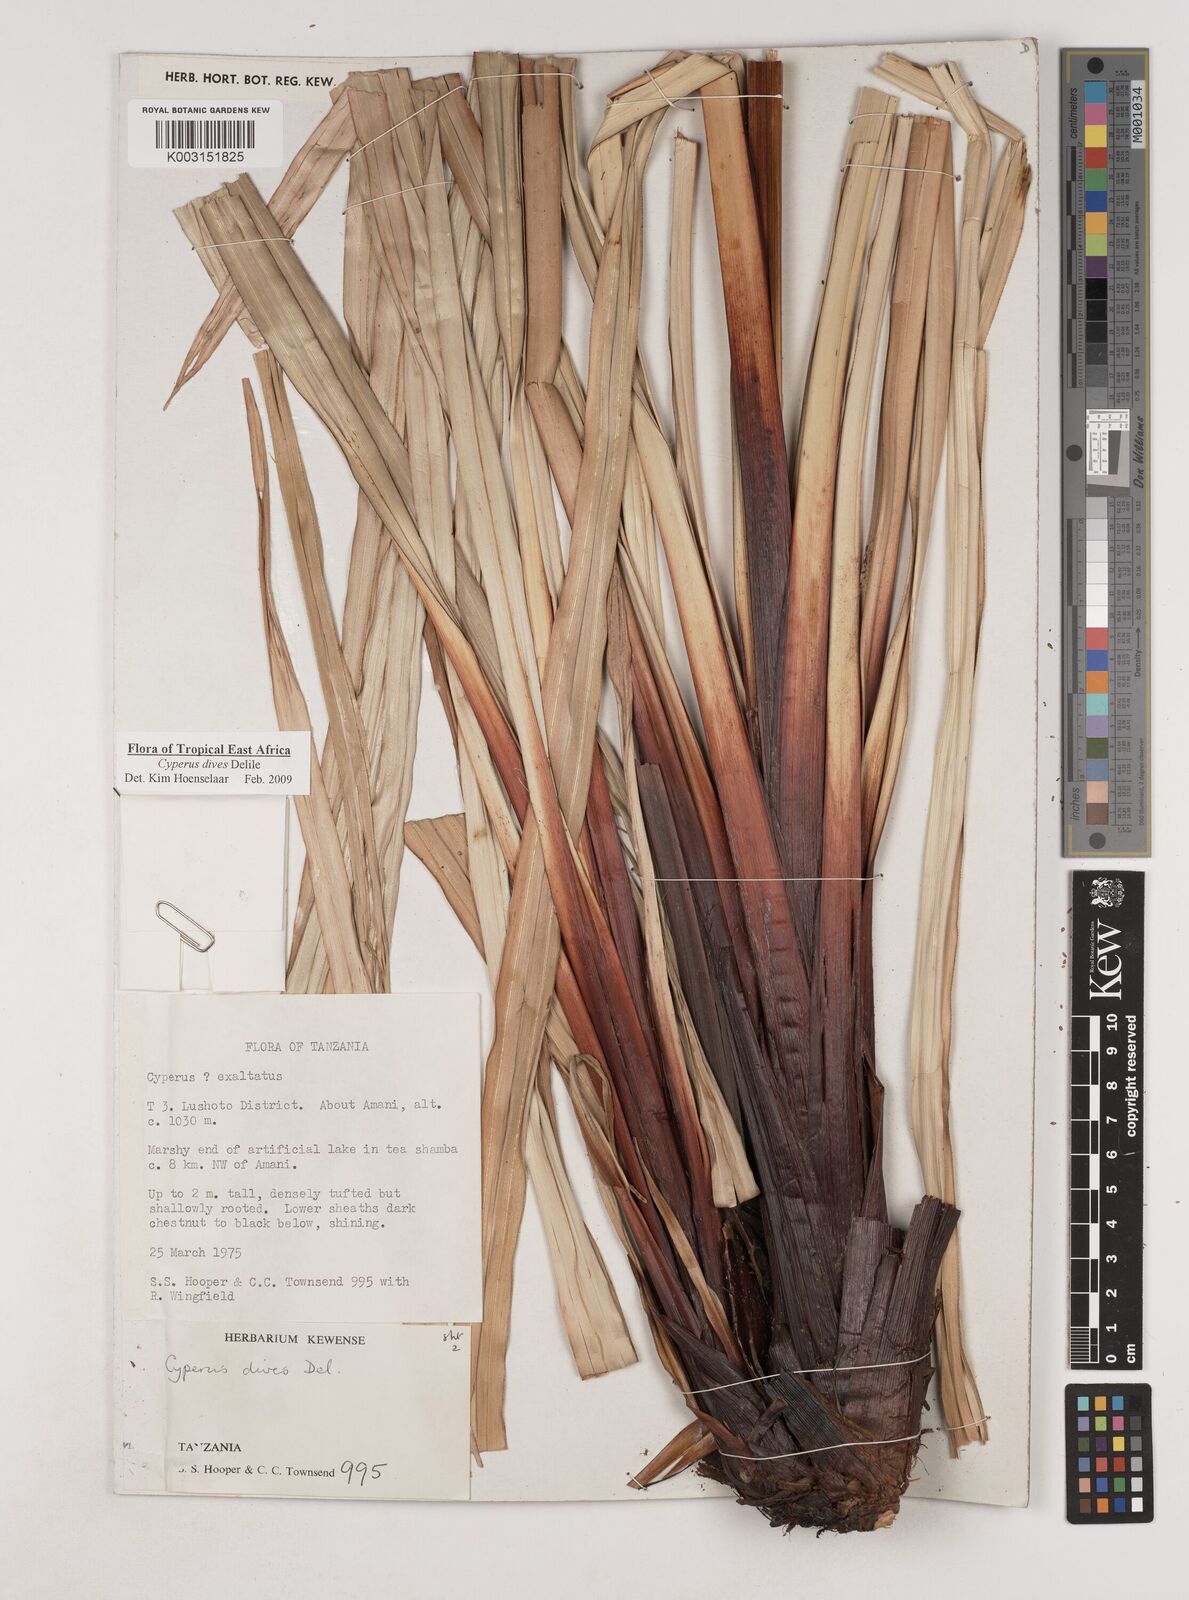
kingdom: Plantae
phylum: Tracheophyta
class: Liliopsida
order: Poales
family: Cyperaceae
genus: Cyperus
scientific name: Cyperus dives
